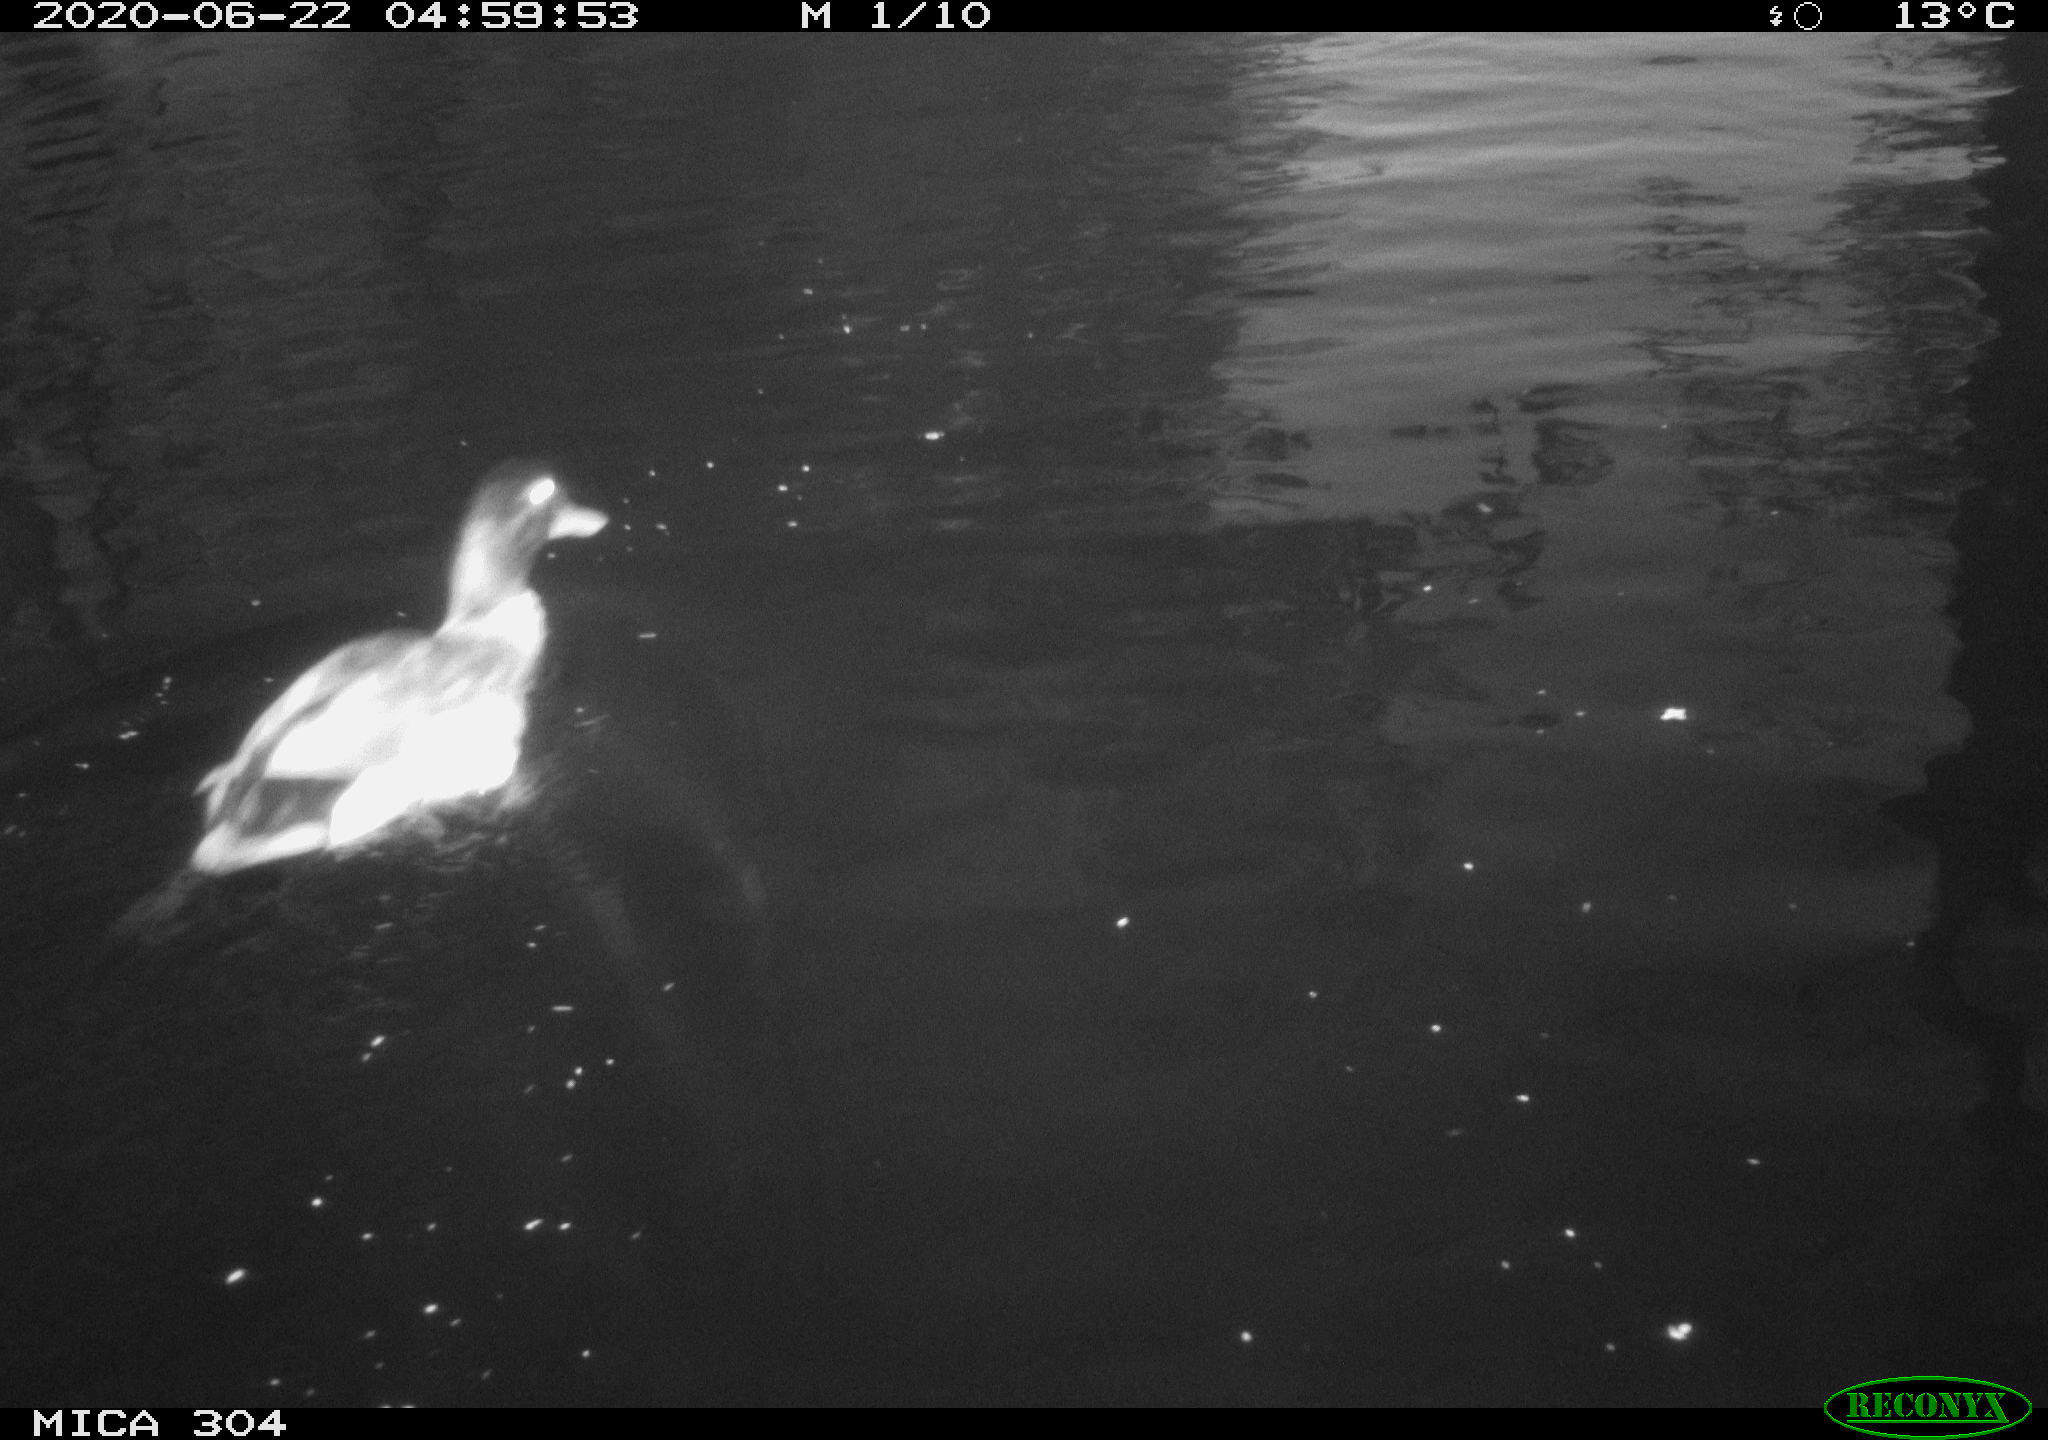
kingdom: Animalia
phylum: Chordata
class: Aves
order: Anseriformes
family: Anatidae
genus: Anas
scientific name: Anas platyrhynchos
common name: Mallard
